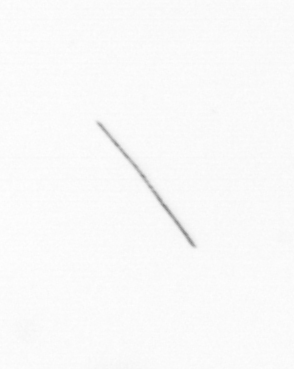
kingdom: Chromista
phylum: Ochrophyta
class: Bacillariophyceae
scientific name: Bacillariophyceae
